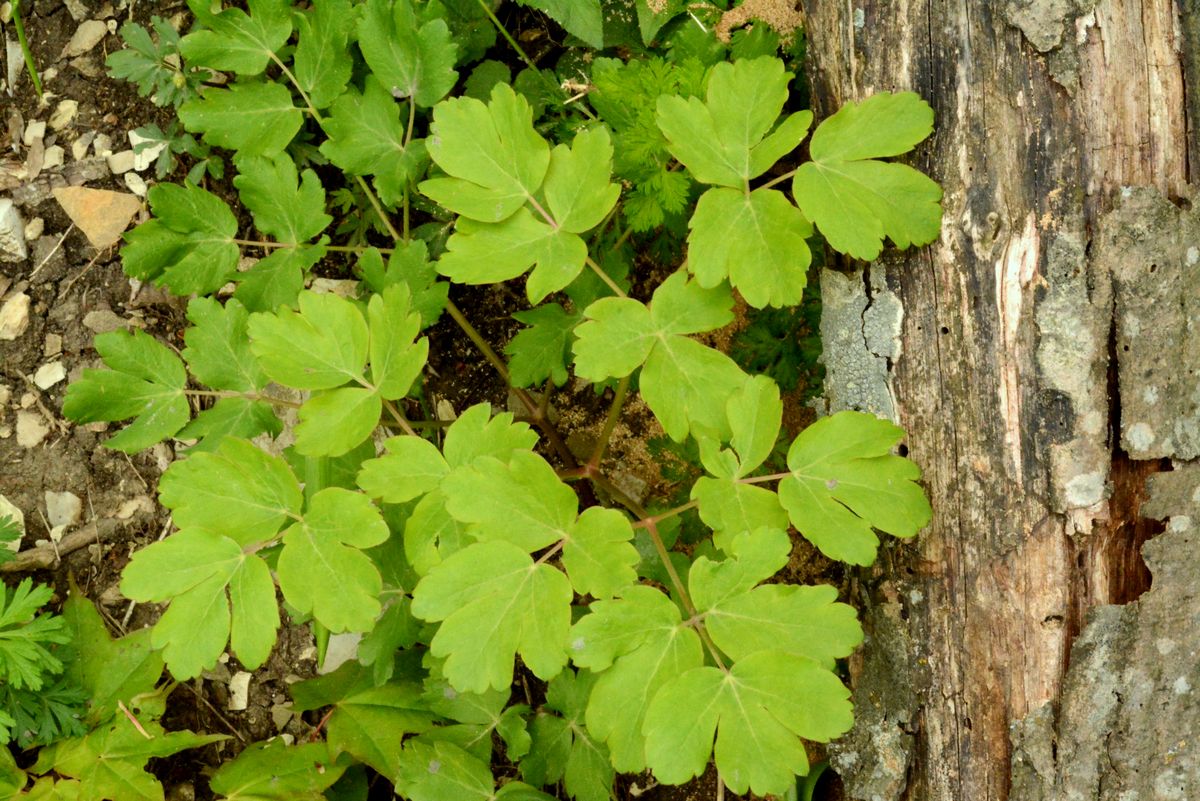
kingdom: Plantae
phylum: Tracheophyta
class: Magnoliopsida
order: Apiales
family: Apiaceae
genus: Laser
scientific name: Laser trilobum
